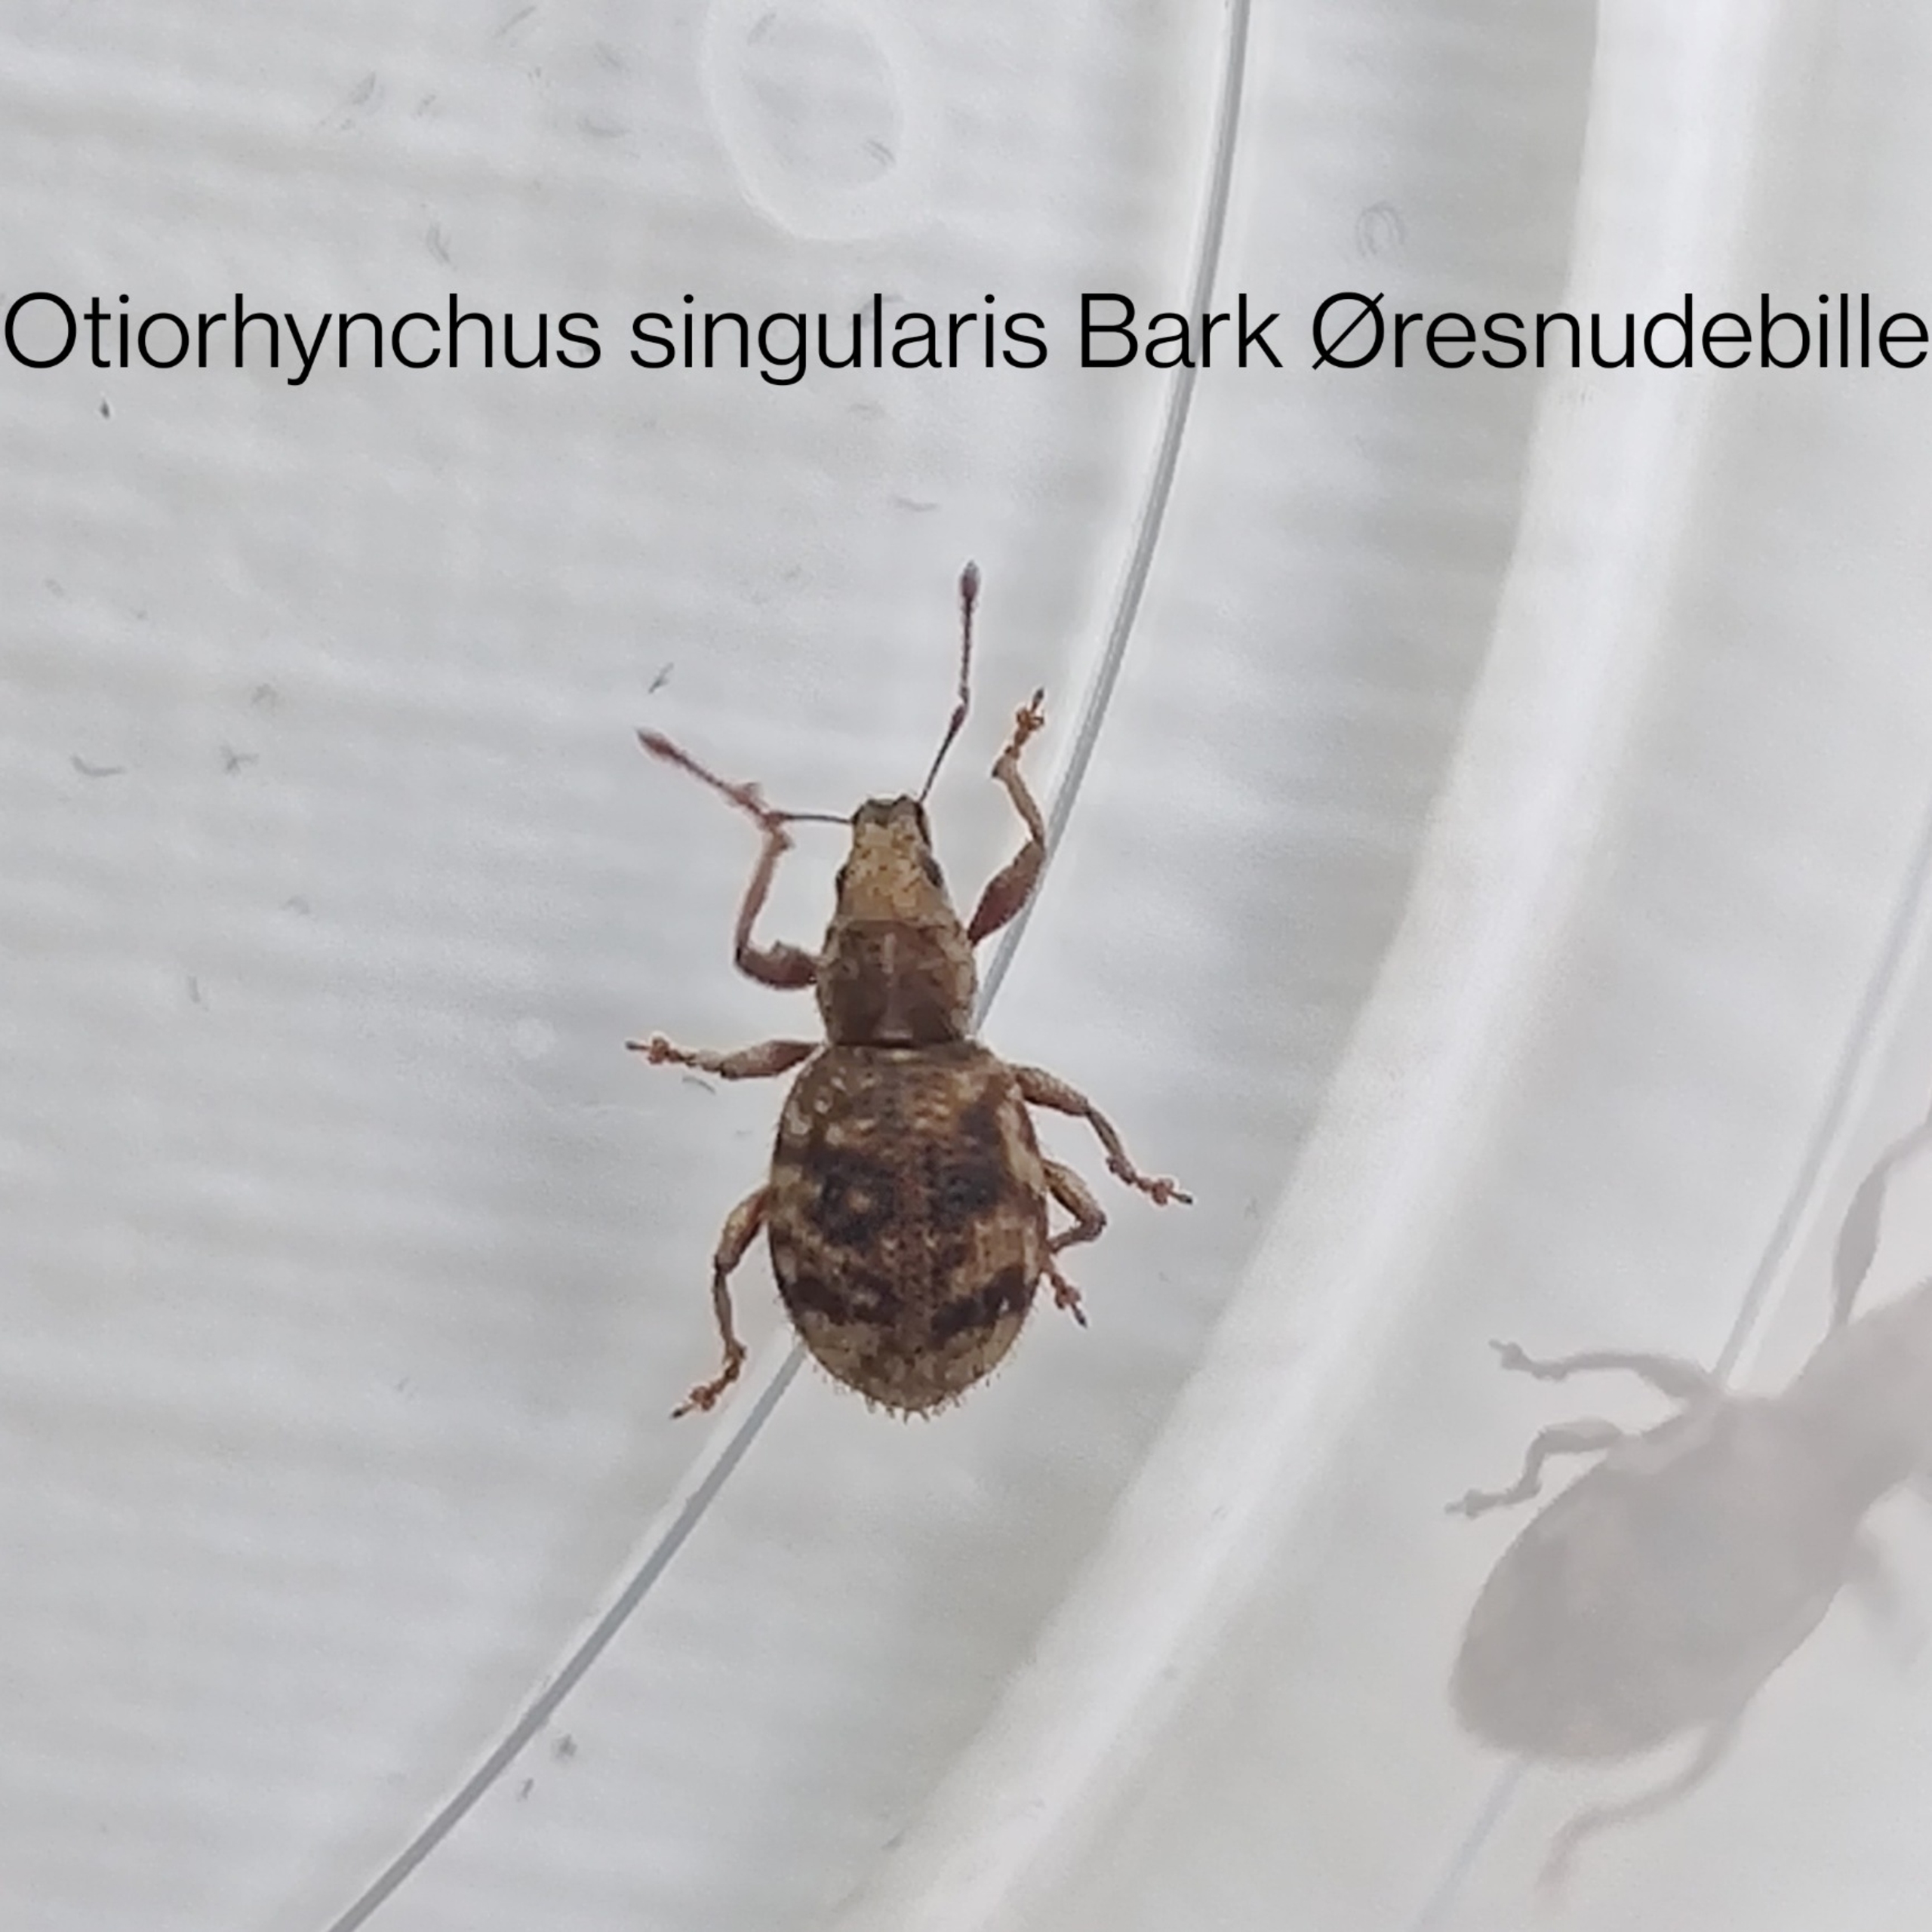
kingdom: Animalia
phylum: Arthropoda
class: Insecta
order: Coleoptera
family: Curculionidae
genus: Sciaphilus
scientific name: Sciaphilus asperatus
